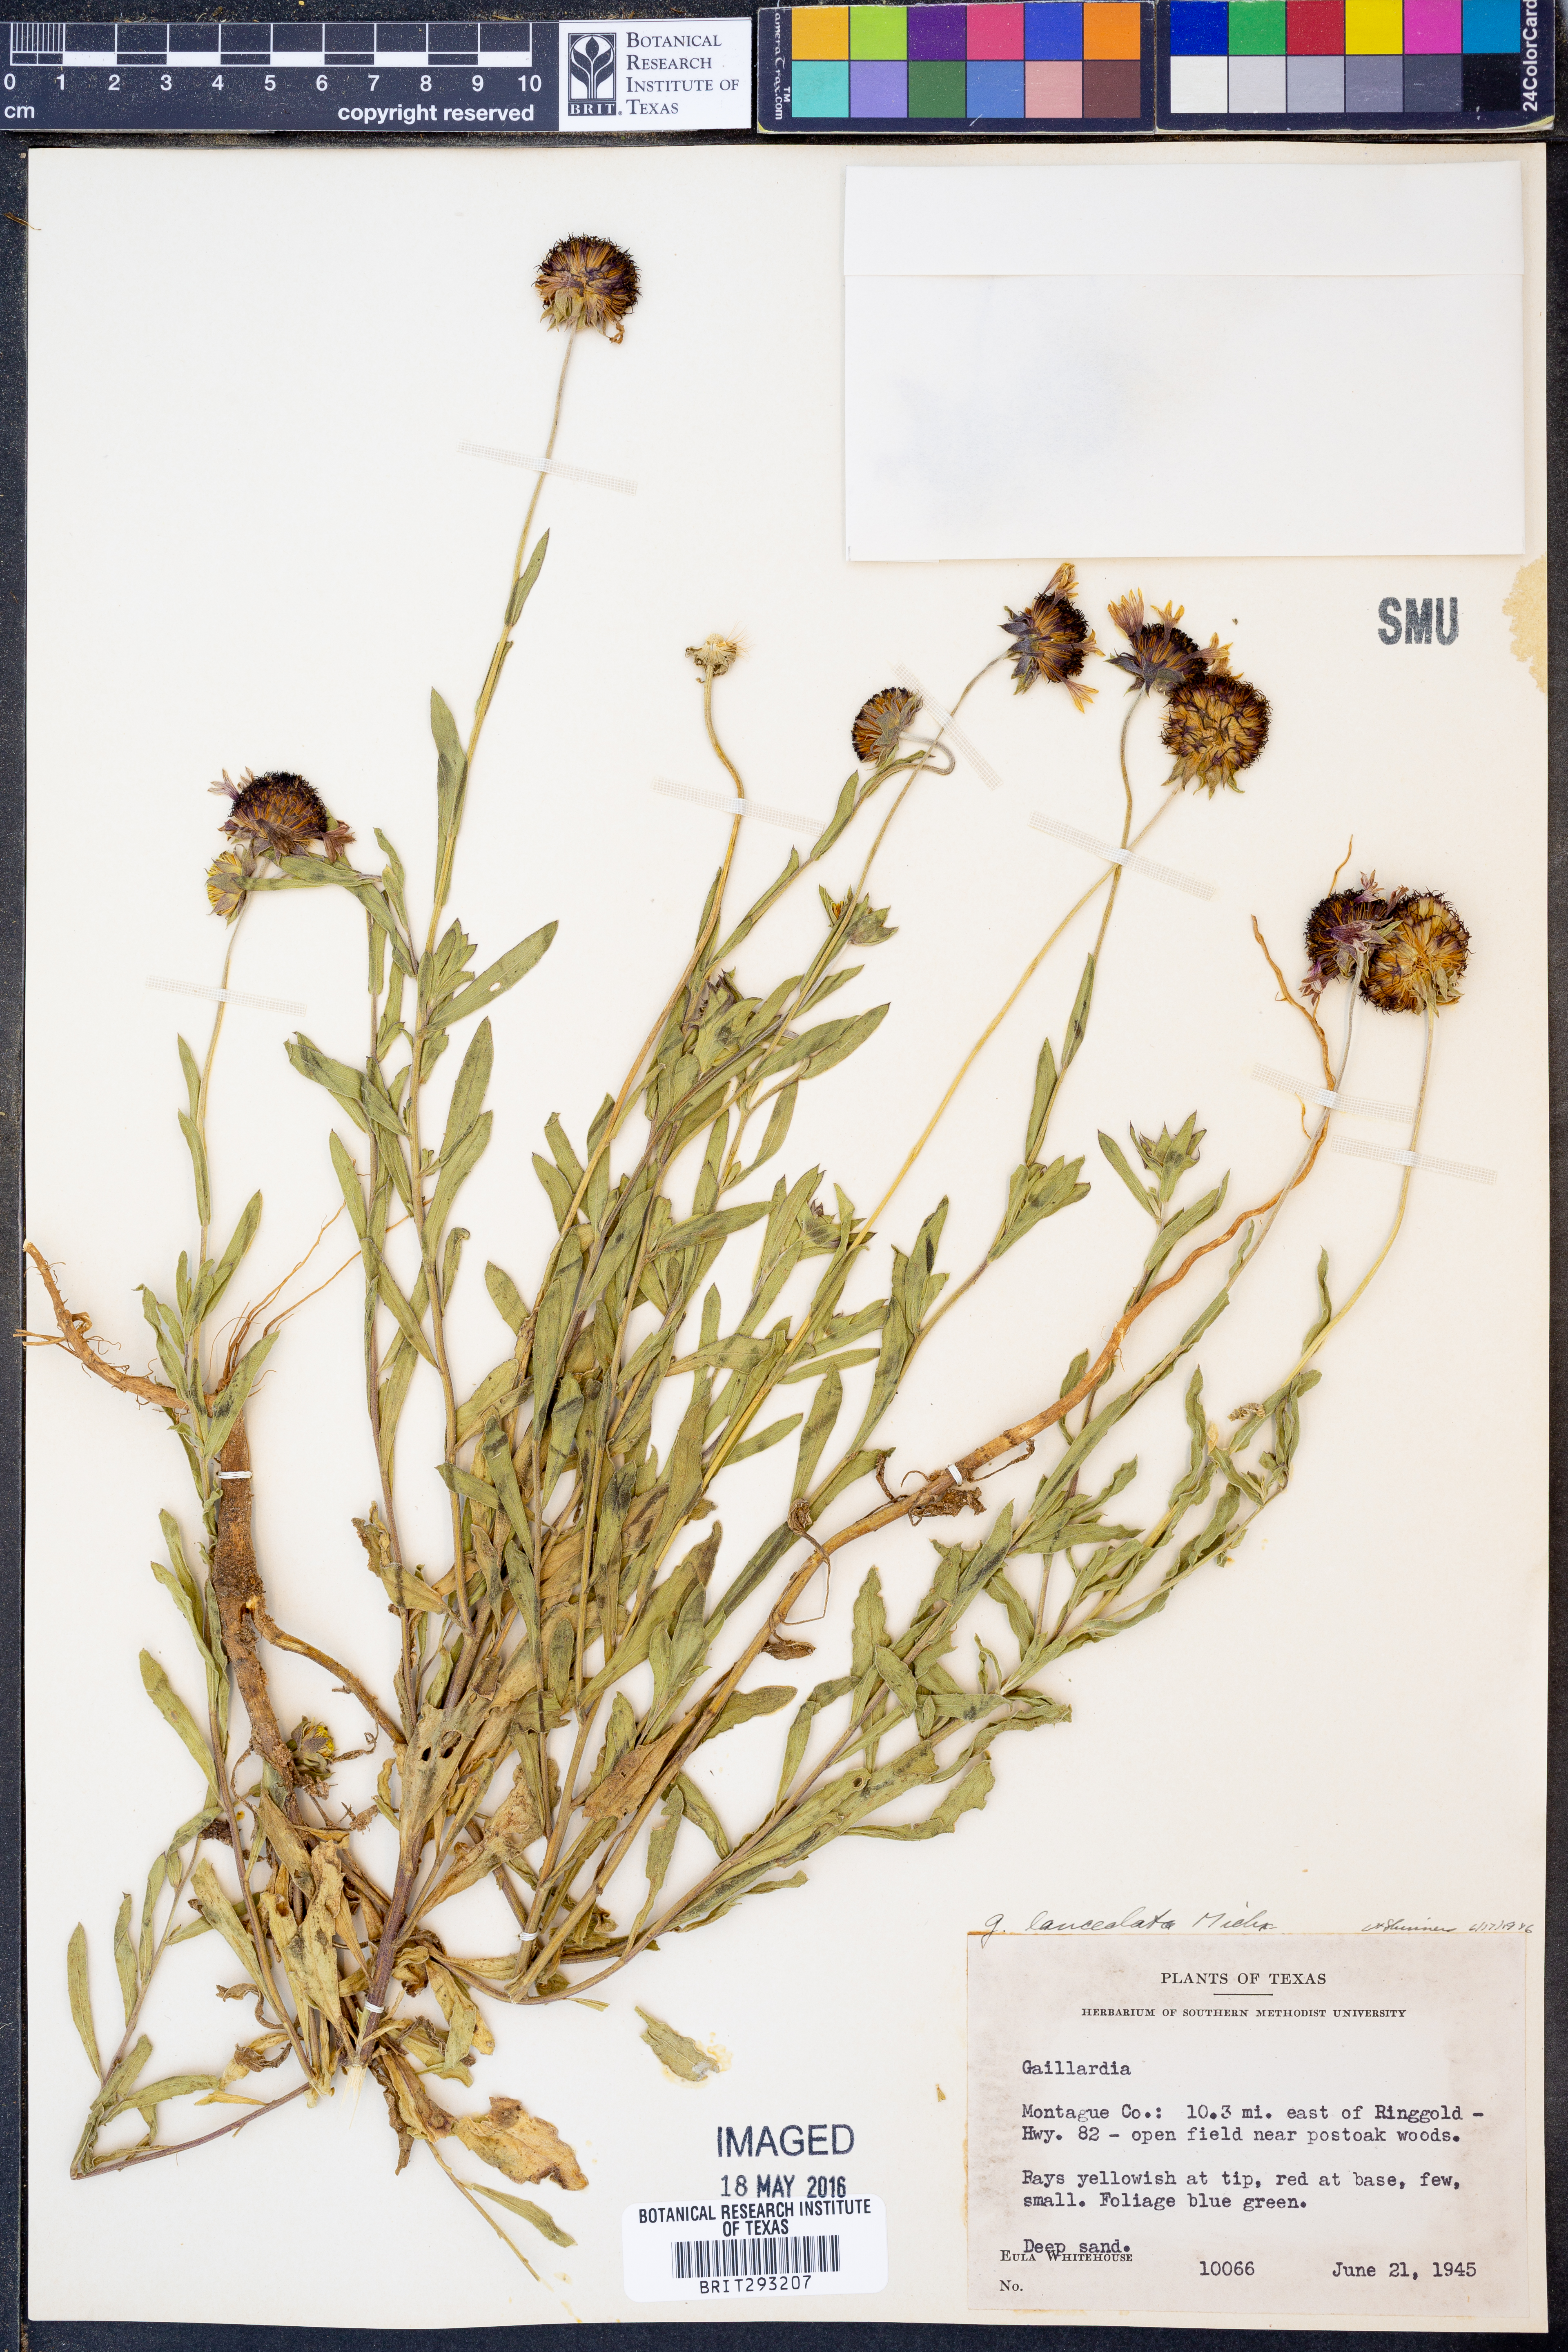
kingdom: Plantae
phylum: Tracheophyta
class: Magnoliopsida
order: Asterales
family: Asteraceae
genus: Gaillardia
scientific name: Gaillardia aestivalis
